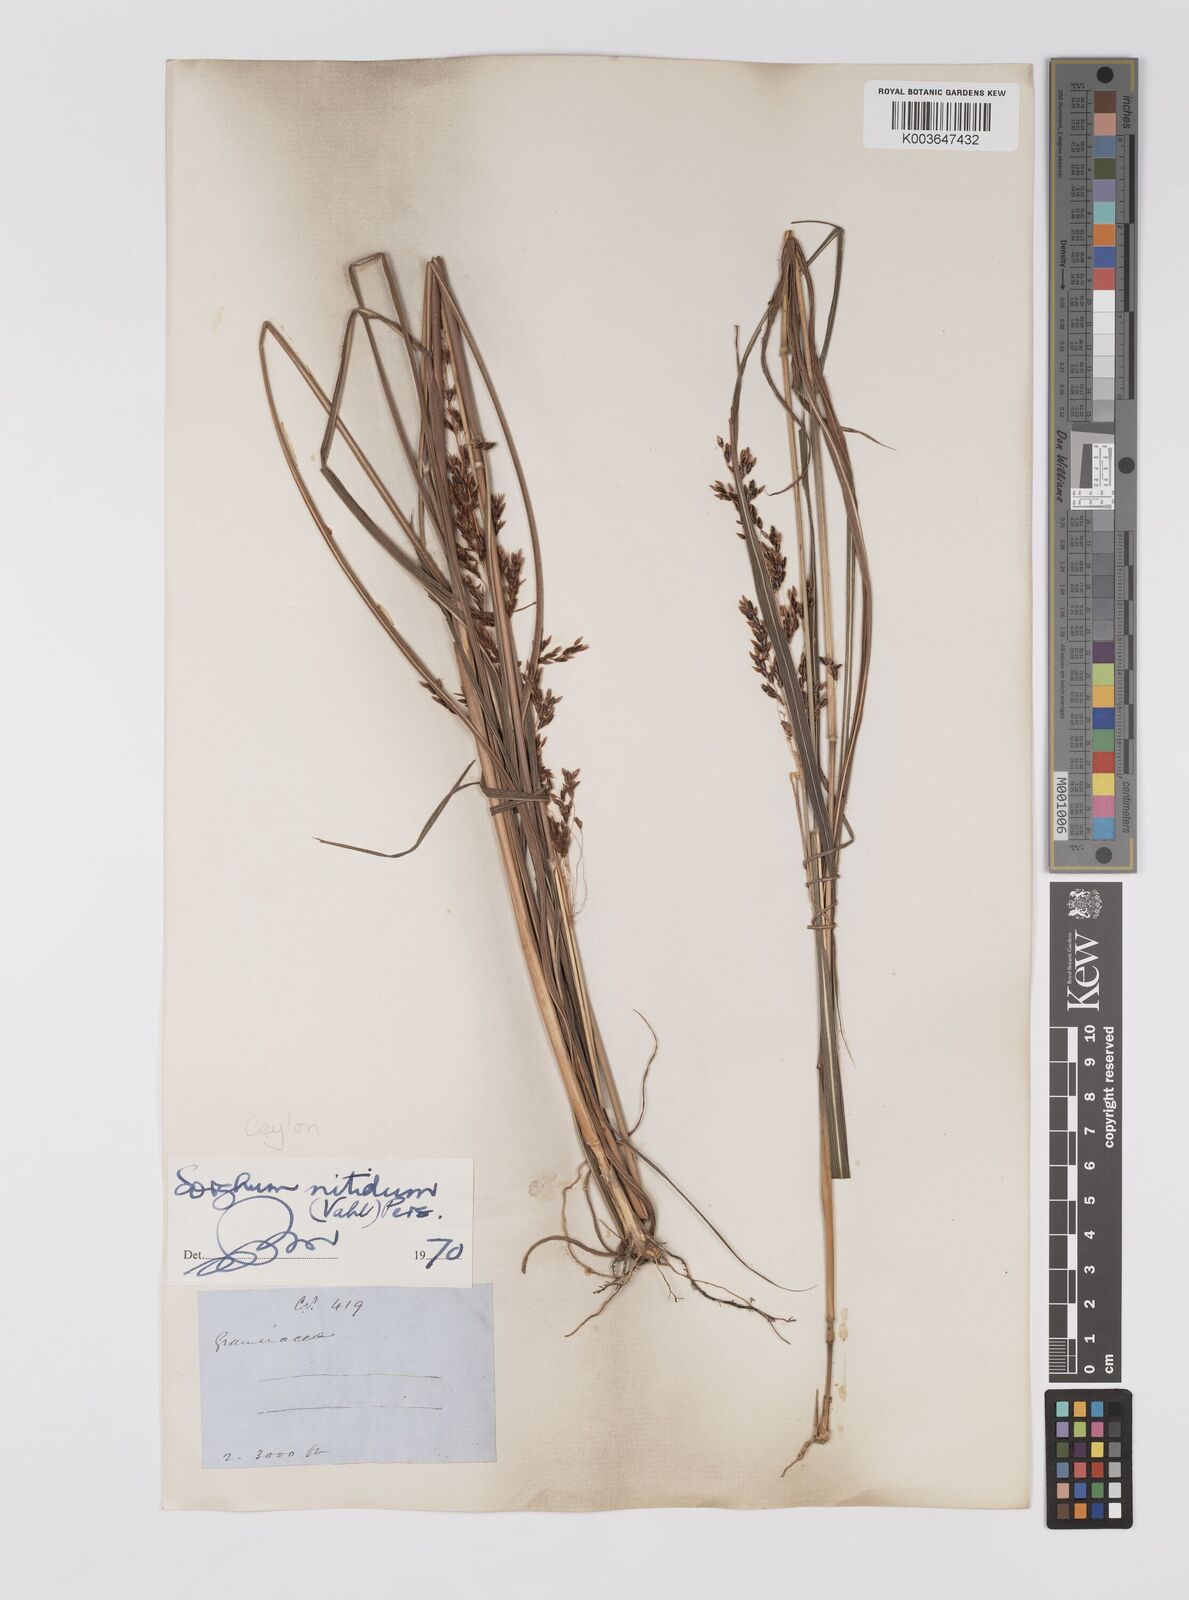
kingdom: Plantae
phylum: Tracheophyta
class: Liliopsida
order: Poales
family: Poaceae
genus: Sorghum
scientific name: Sorghum nitidum
